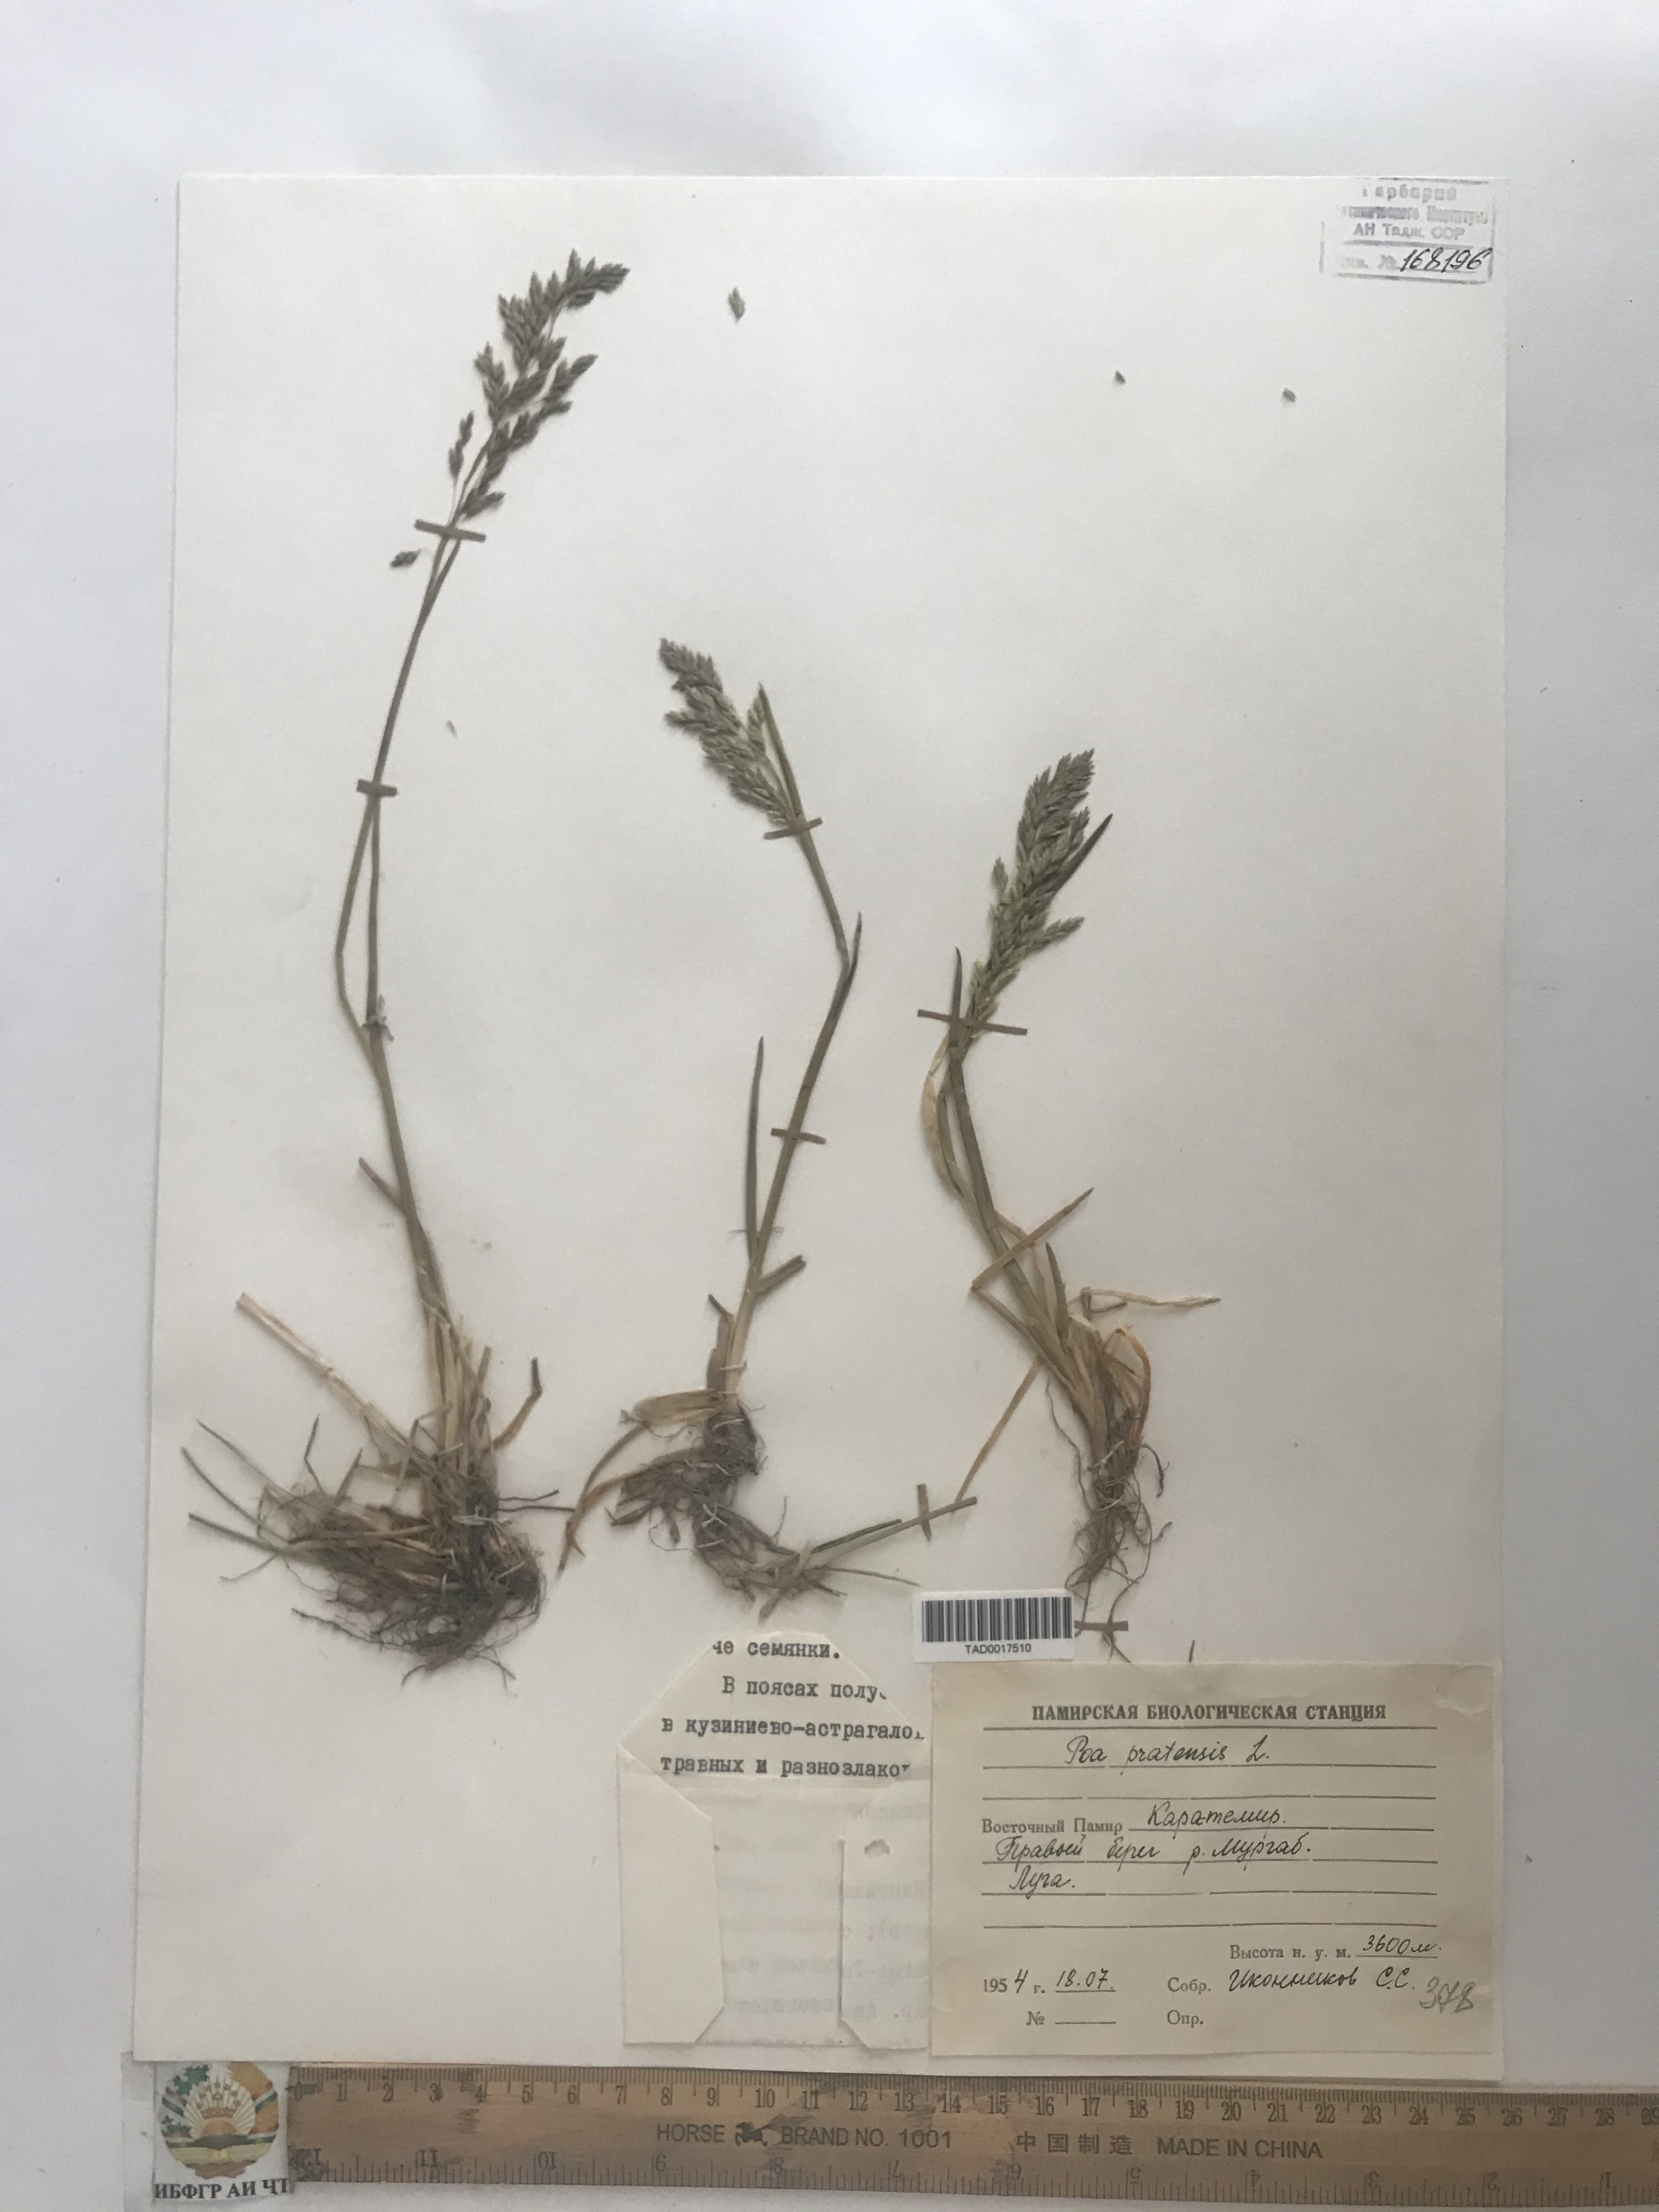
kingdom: Plantae
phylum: Tracheophyta
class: Liliopsida
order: Poales
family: Poaceae
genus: Poa
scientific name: Poa pratensis
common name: Kentucky bluegrass
